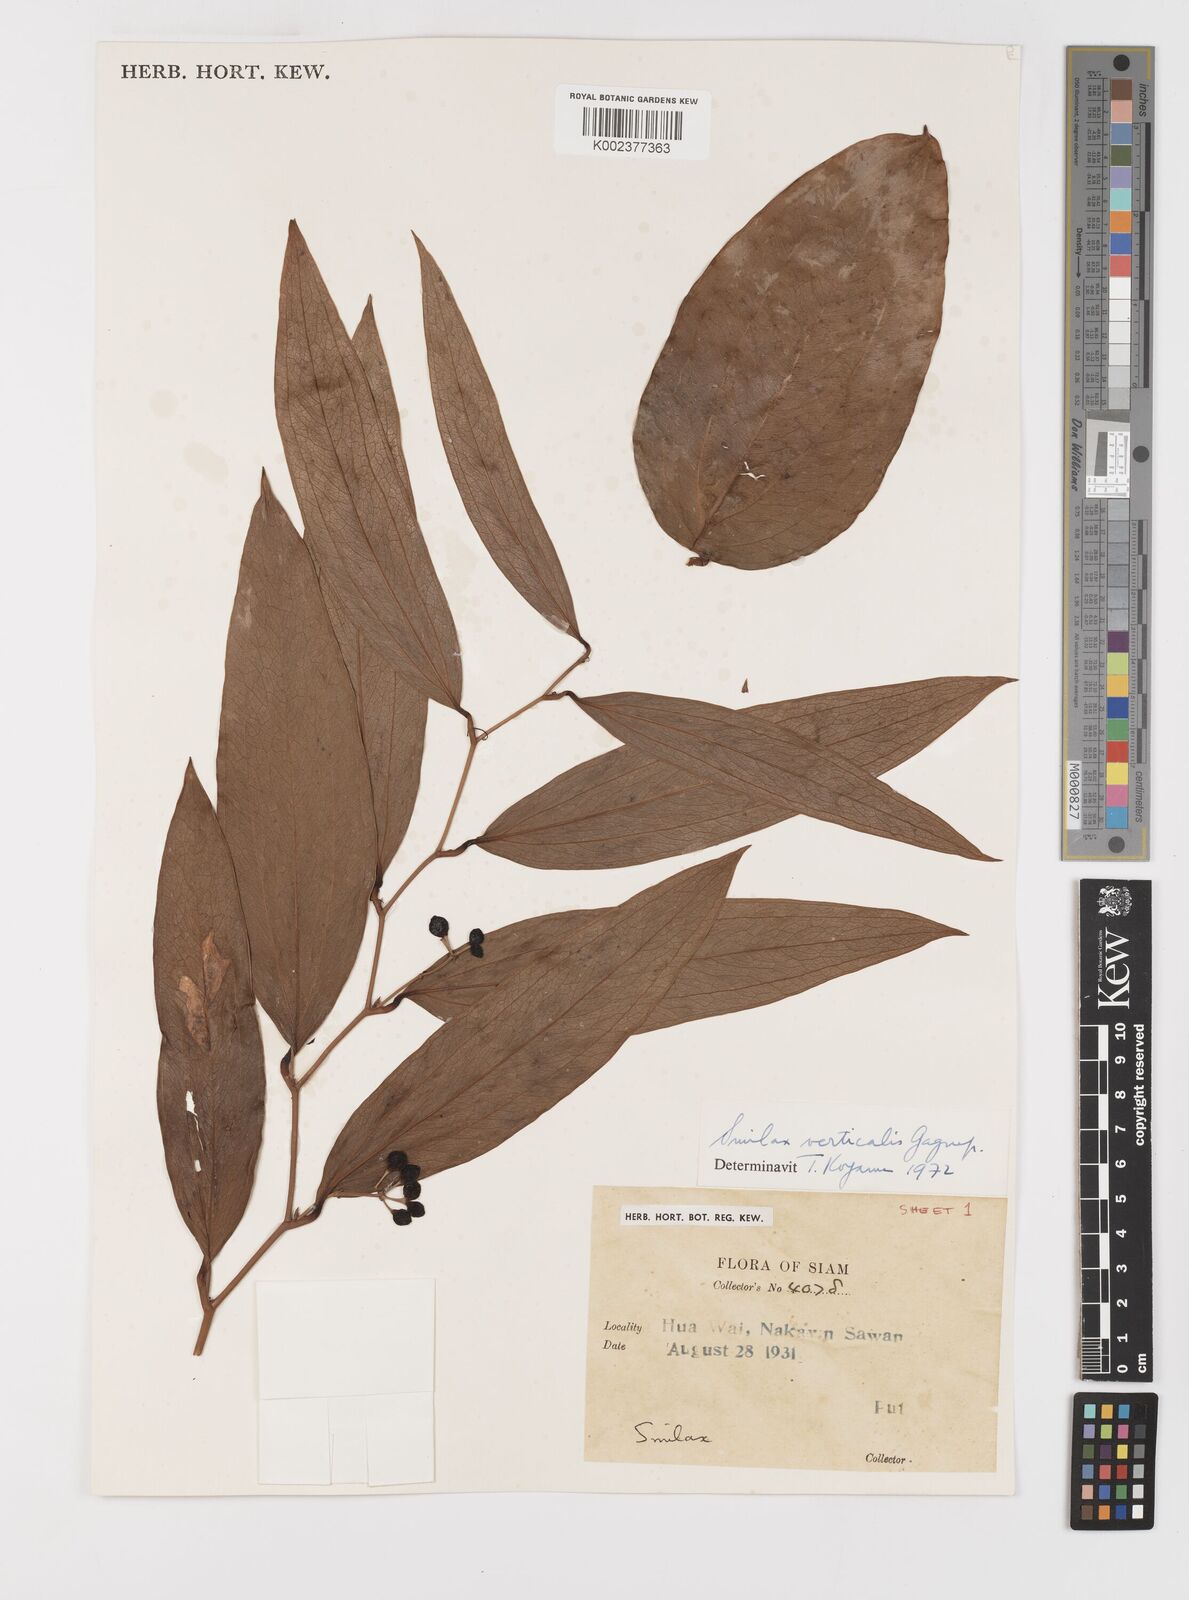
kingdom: Plantae
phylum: Tracheophyta
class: Liliopsida
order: Liliales
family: Smilacaceae
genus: Smilax
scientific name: Smilax verticalis
